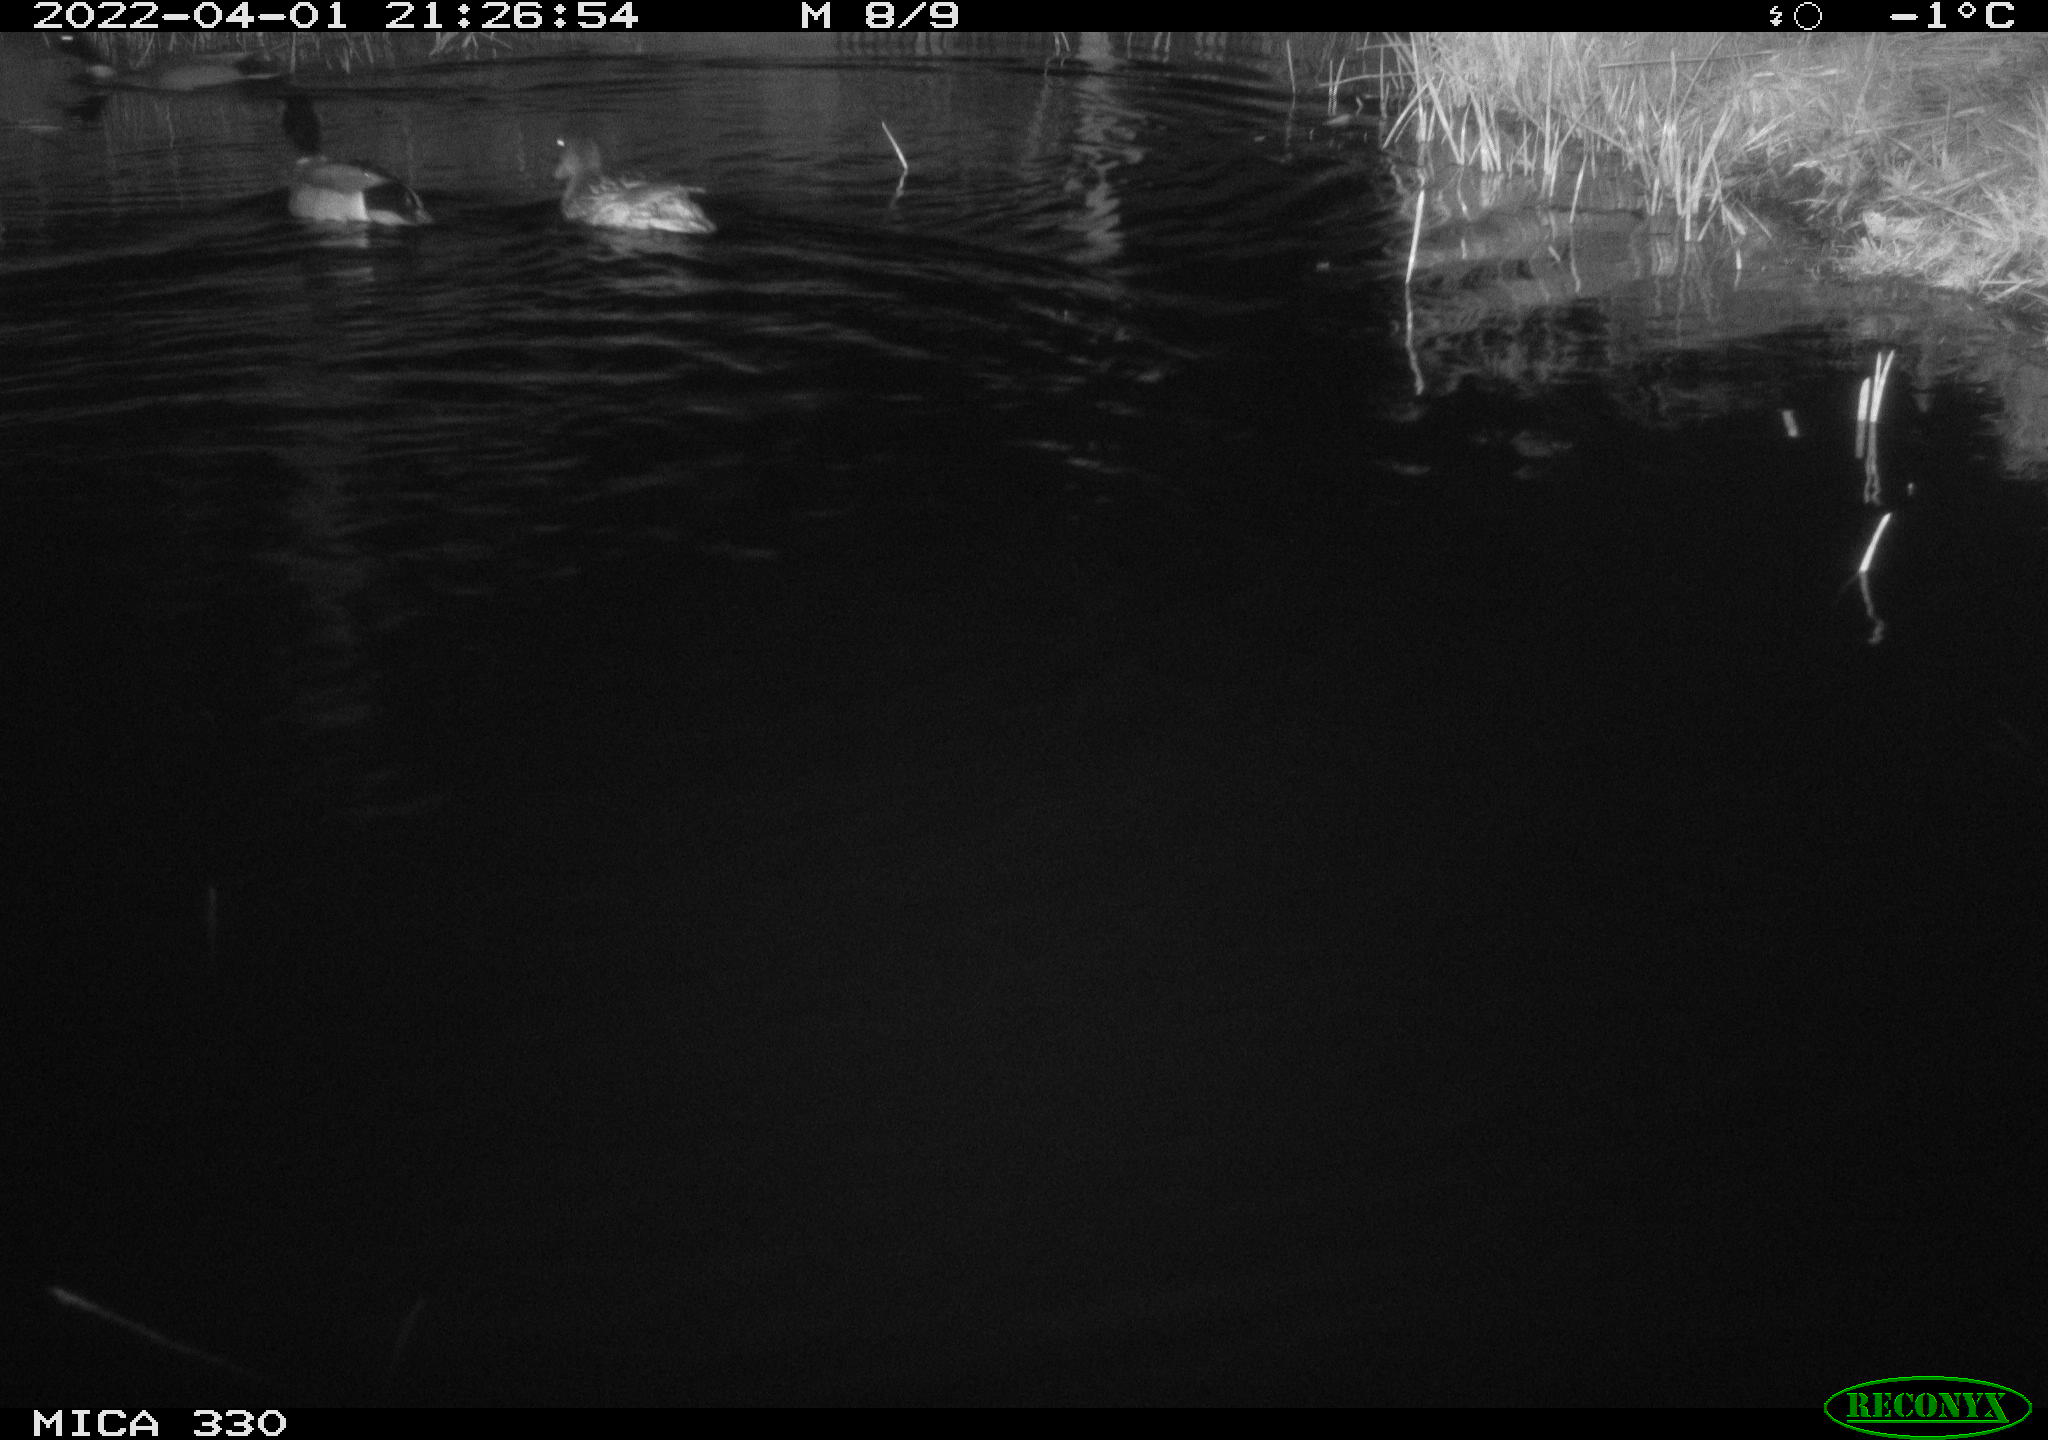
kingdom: Animalia
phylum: Chordata
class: Aves
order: Anseriformes
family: Anatidae
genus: Anas
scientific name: Anas platyrhynchos
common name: Mallard
